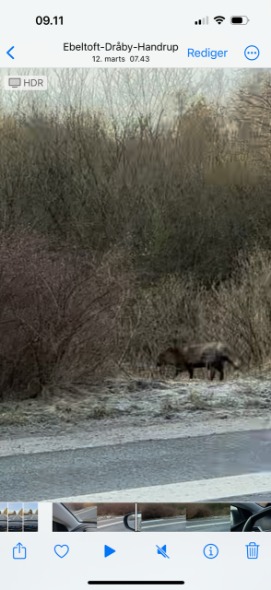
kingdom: Animalia
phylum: Chordata
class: Mammalia
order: Carnivora
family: Canidae
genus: Nyctereutes
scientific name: Nyctereutes procyonoides
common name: Mårhund
